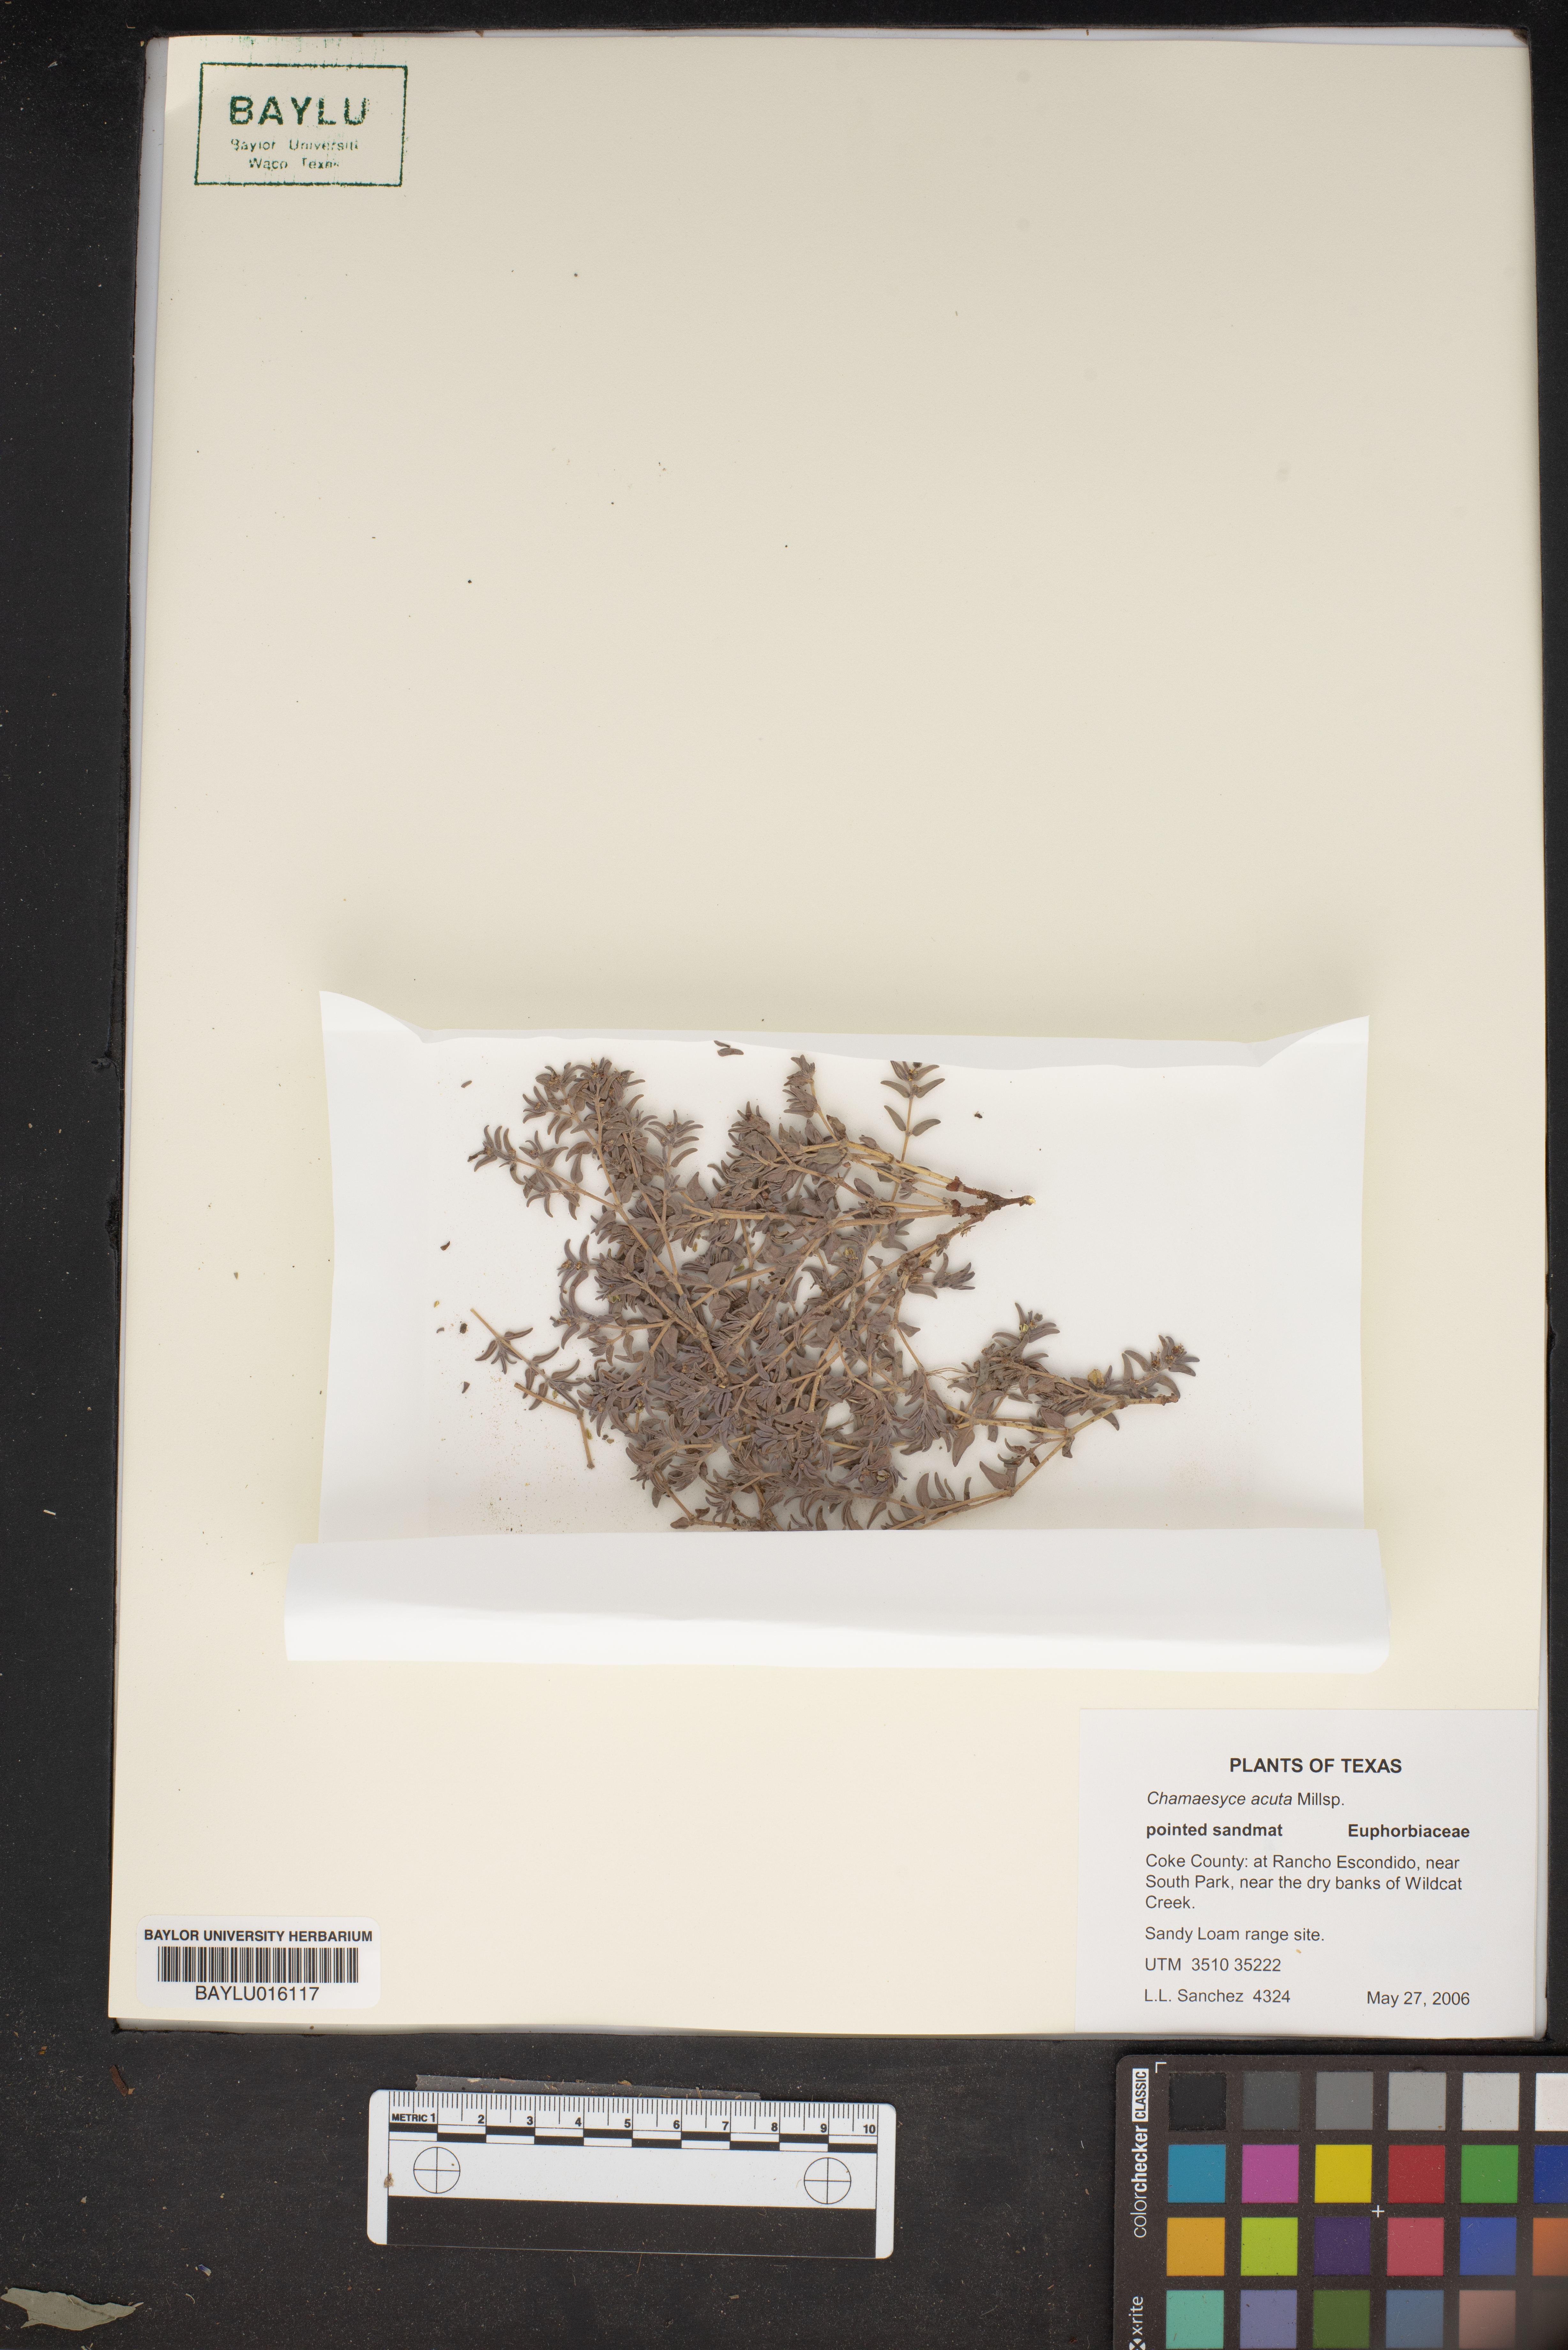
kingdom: Plantae
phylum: Tracheophyta
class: Magnoliopsida
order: Malpighiales
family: Euphorbiaceae
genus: Euphorbia
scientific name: Euphorbia acuta
